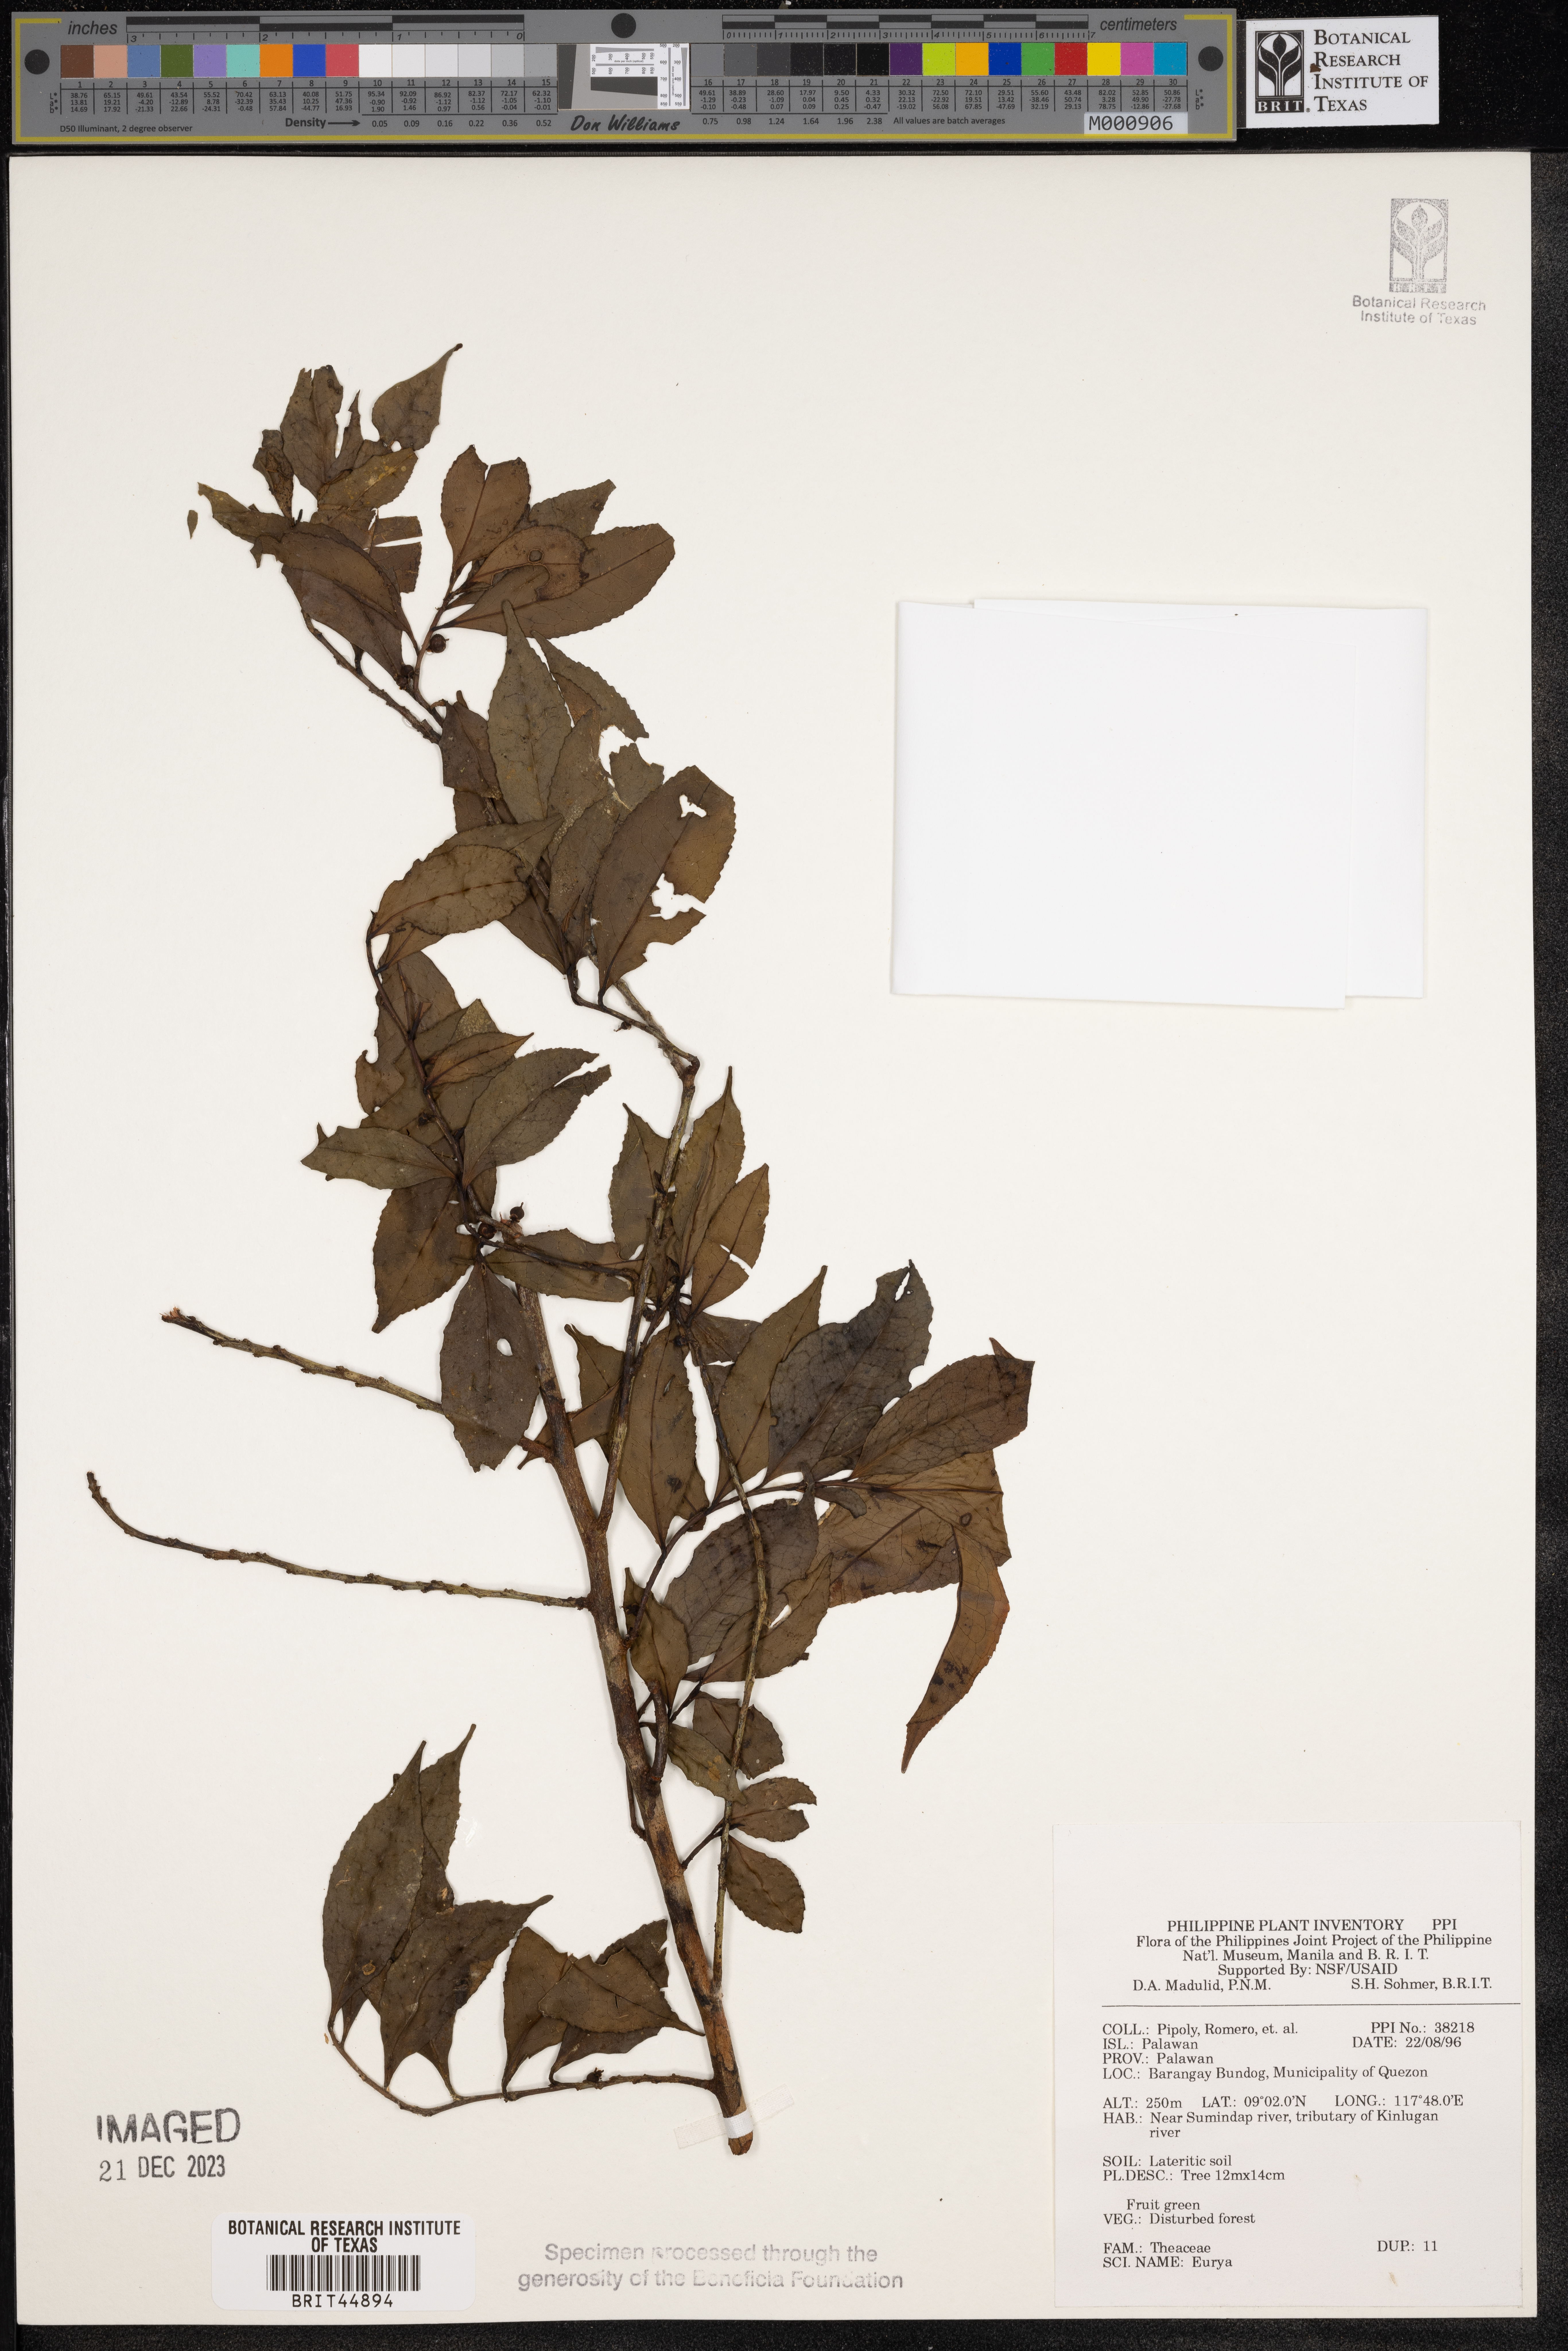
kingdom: Plantae
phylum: Tracheophyta
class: Magnoliopsida
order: Ericales
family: Pentaphylacaceae
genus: Eurya
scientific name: Eurya
